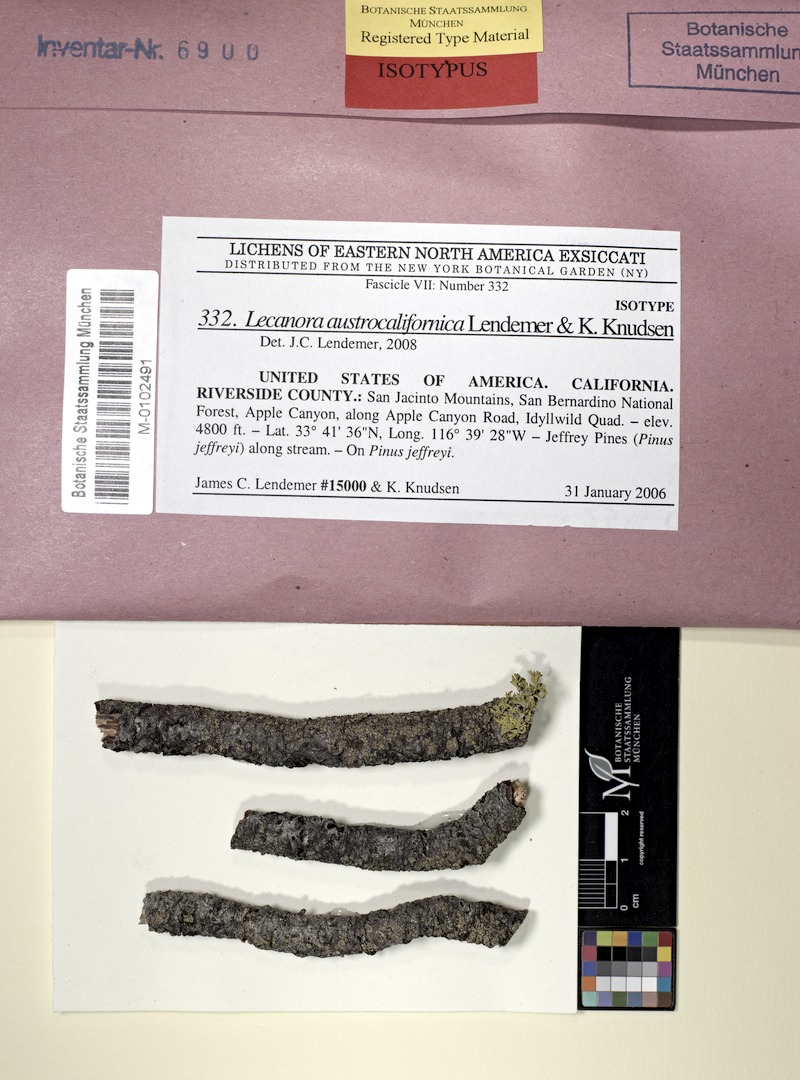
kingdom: Fungi
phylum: Ascomycota
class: Lecanoromycetes
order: Lecanorales
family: Lecanoraceae
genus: Lecanora
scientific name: Lecanora austrocalifornica
